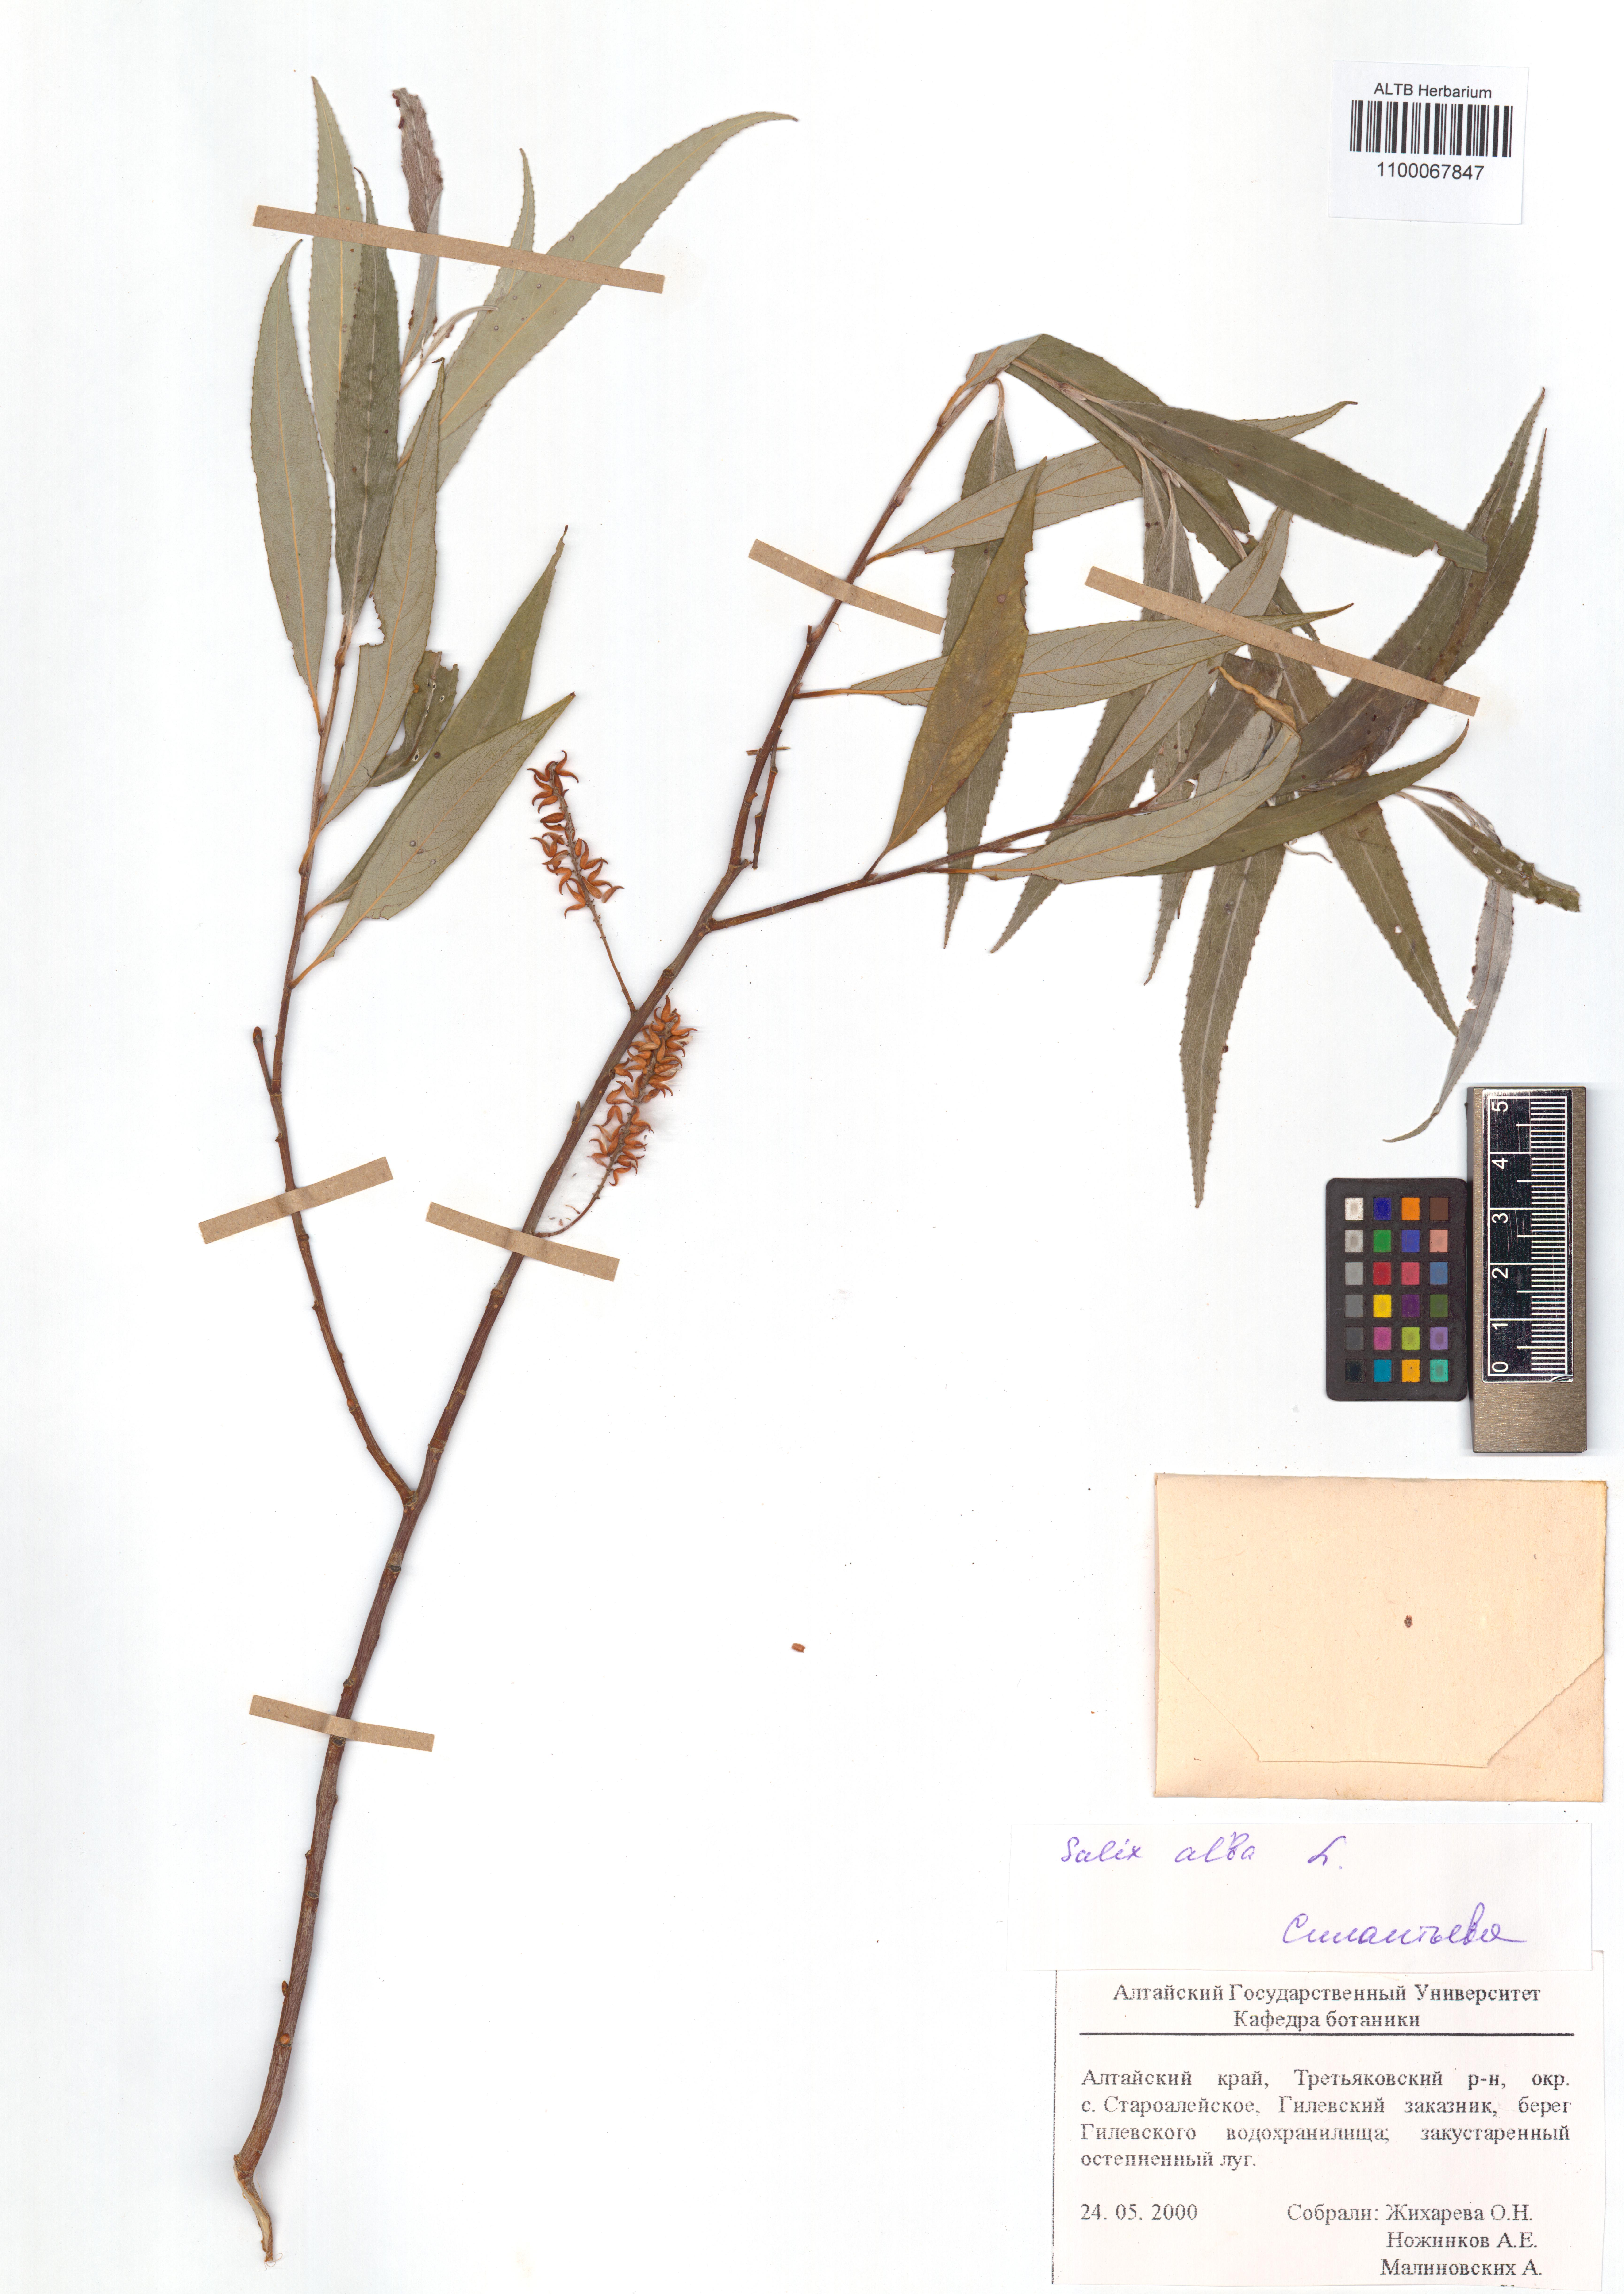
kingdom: Plantae
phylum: Tracheophyta
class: Magnoliopsida
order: Malpighiales
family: Salicaceae
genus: Salix
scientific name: Salix alba
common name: White willow
